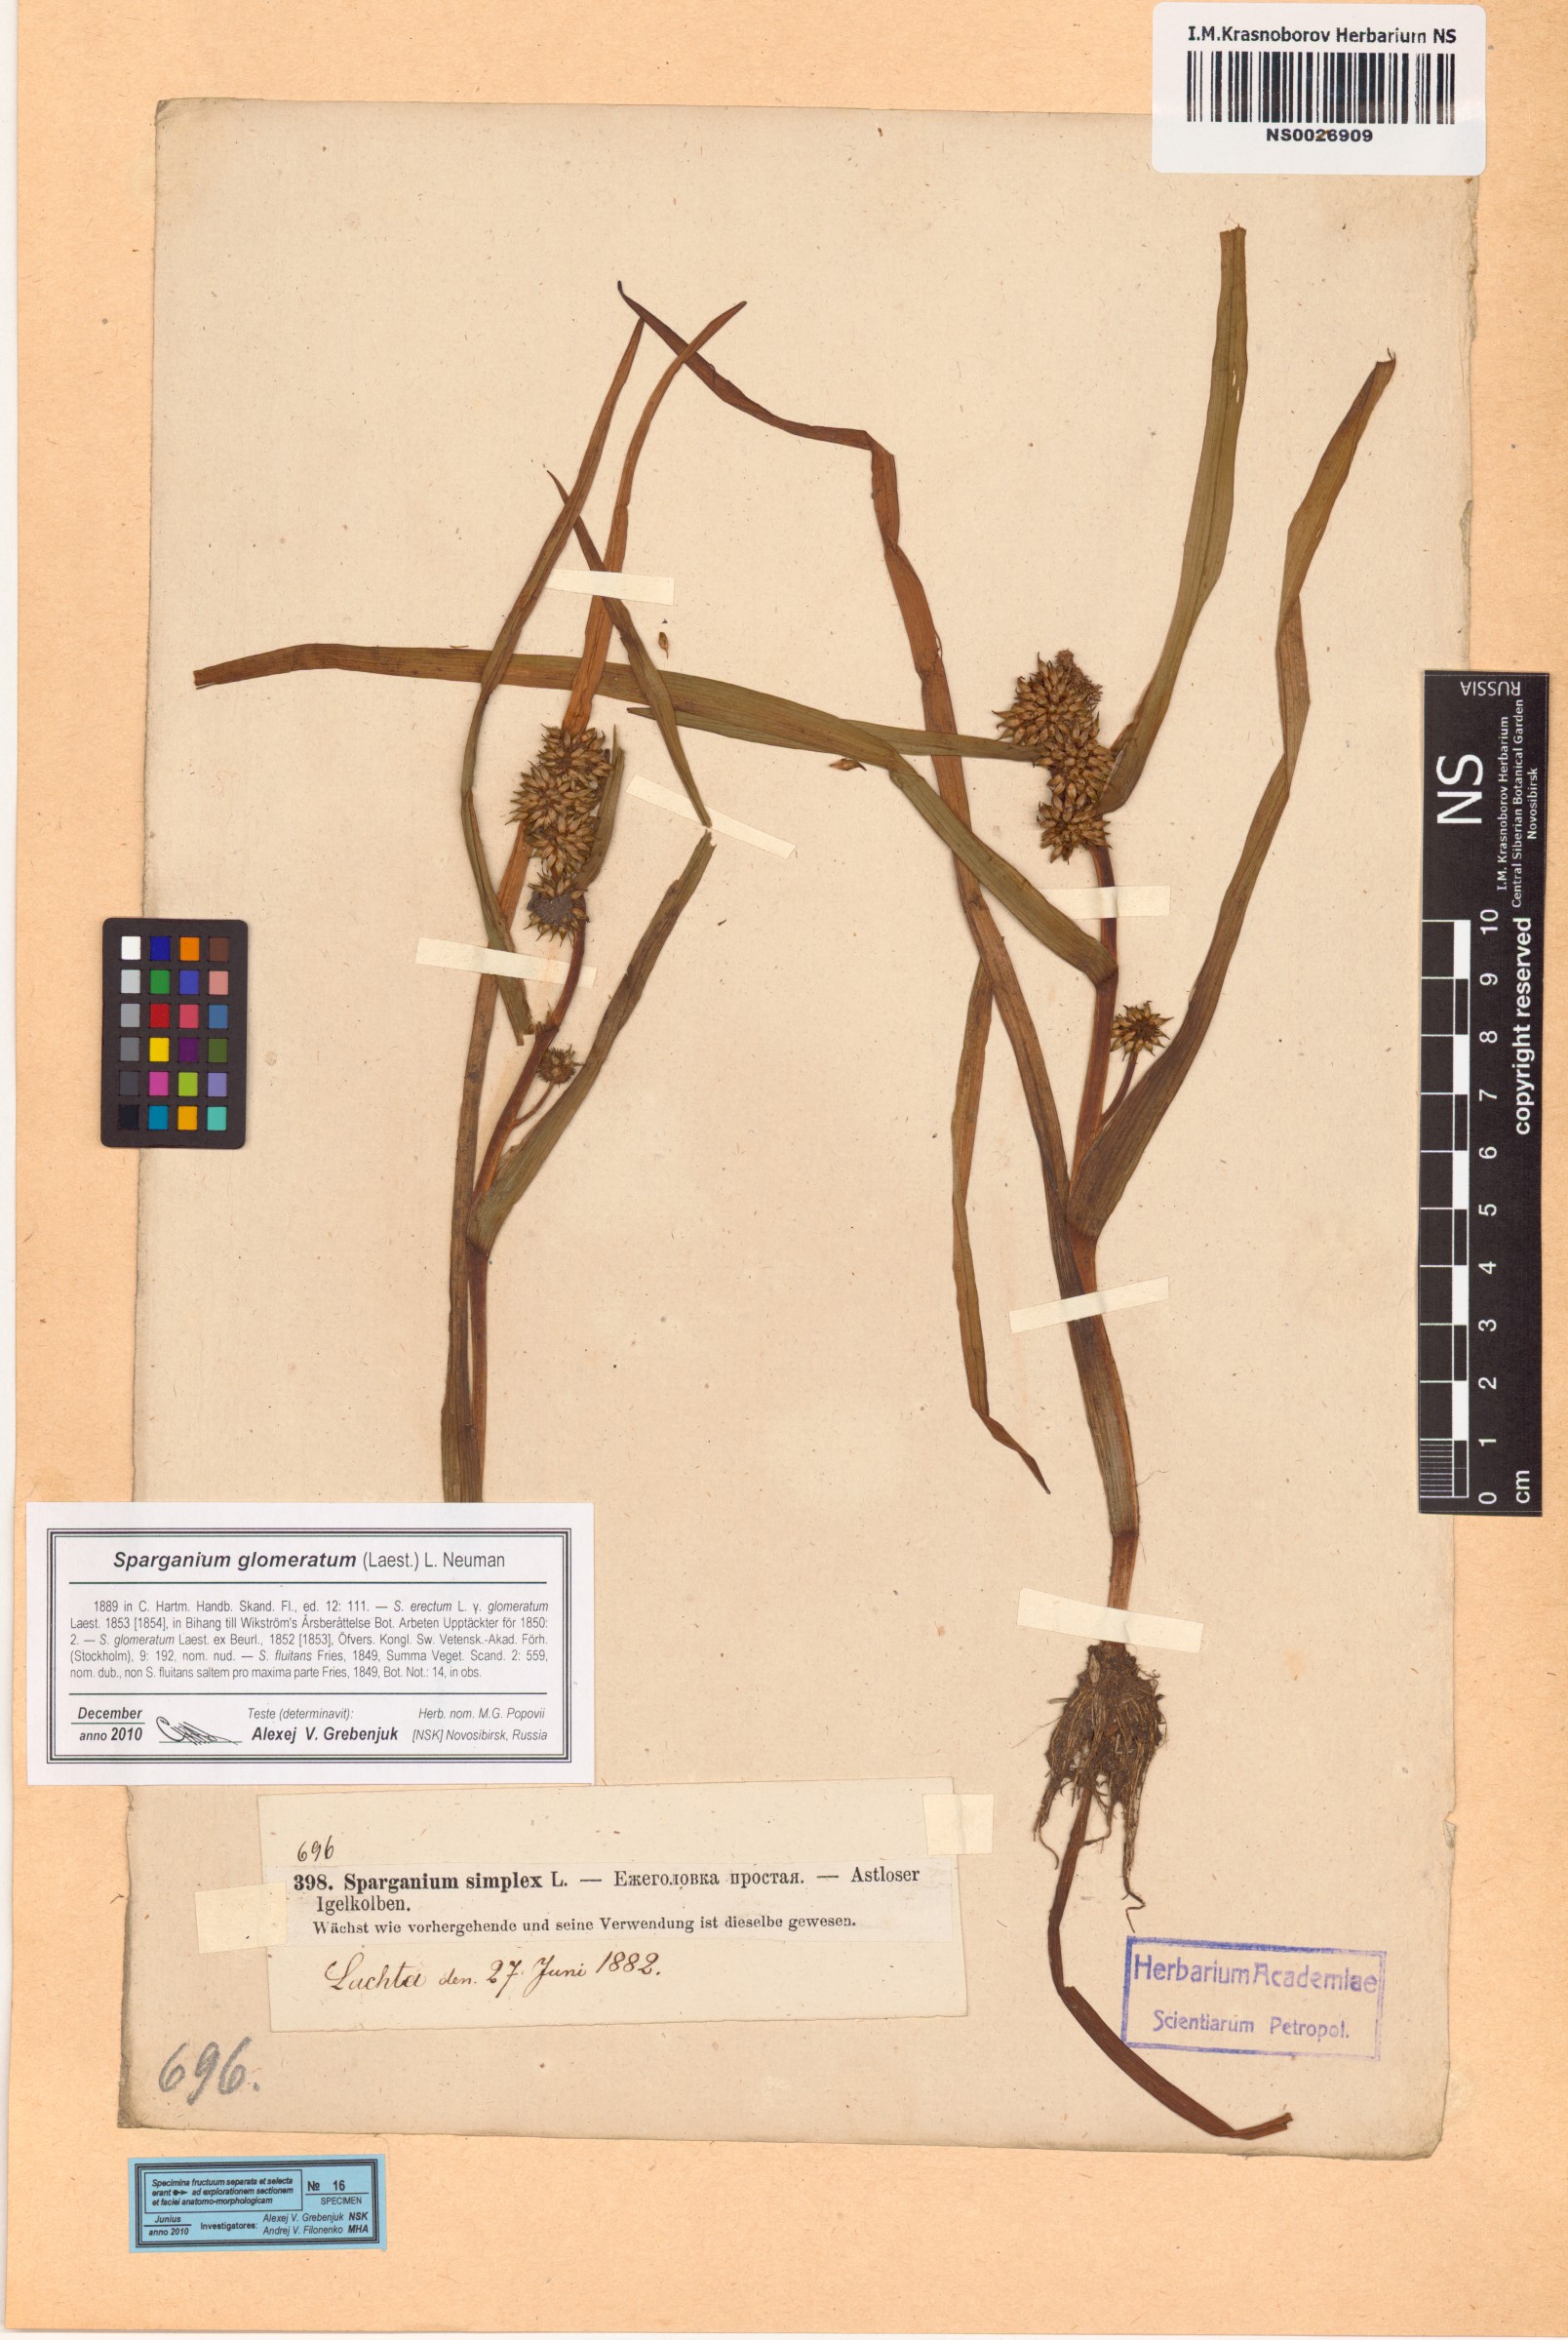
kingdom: Plantae
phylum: Tracheophyta
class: Liliopsida
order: Poales
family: Typhaceae
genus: Sparganium
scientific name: Sparganium glomeratum
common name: Clustered burreed
